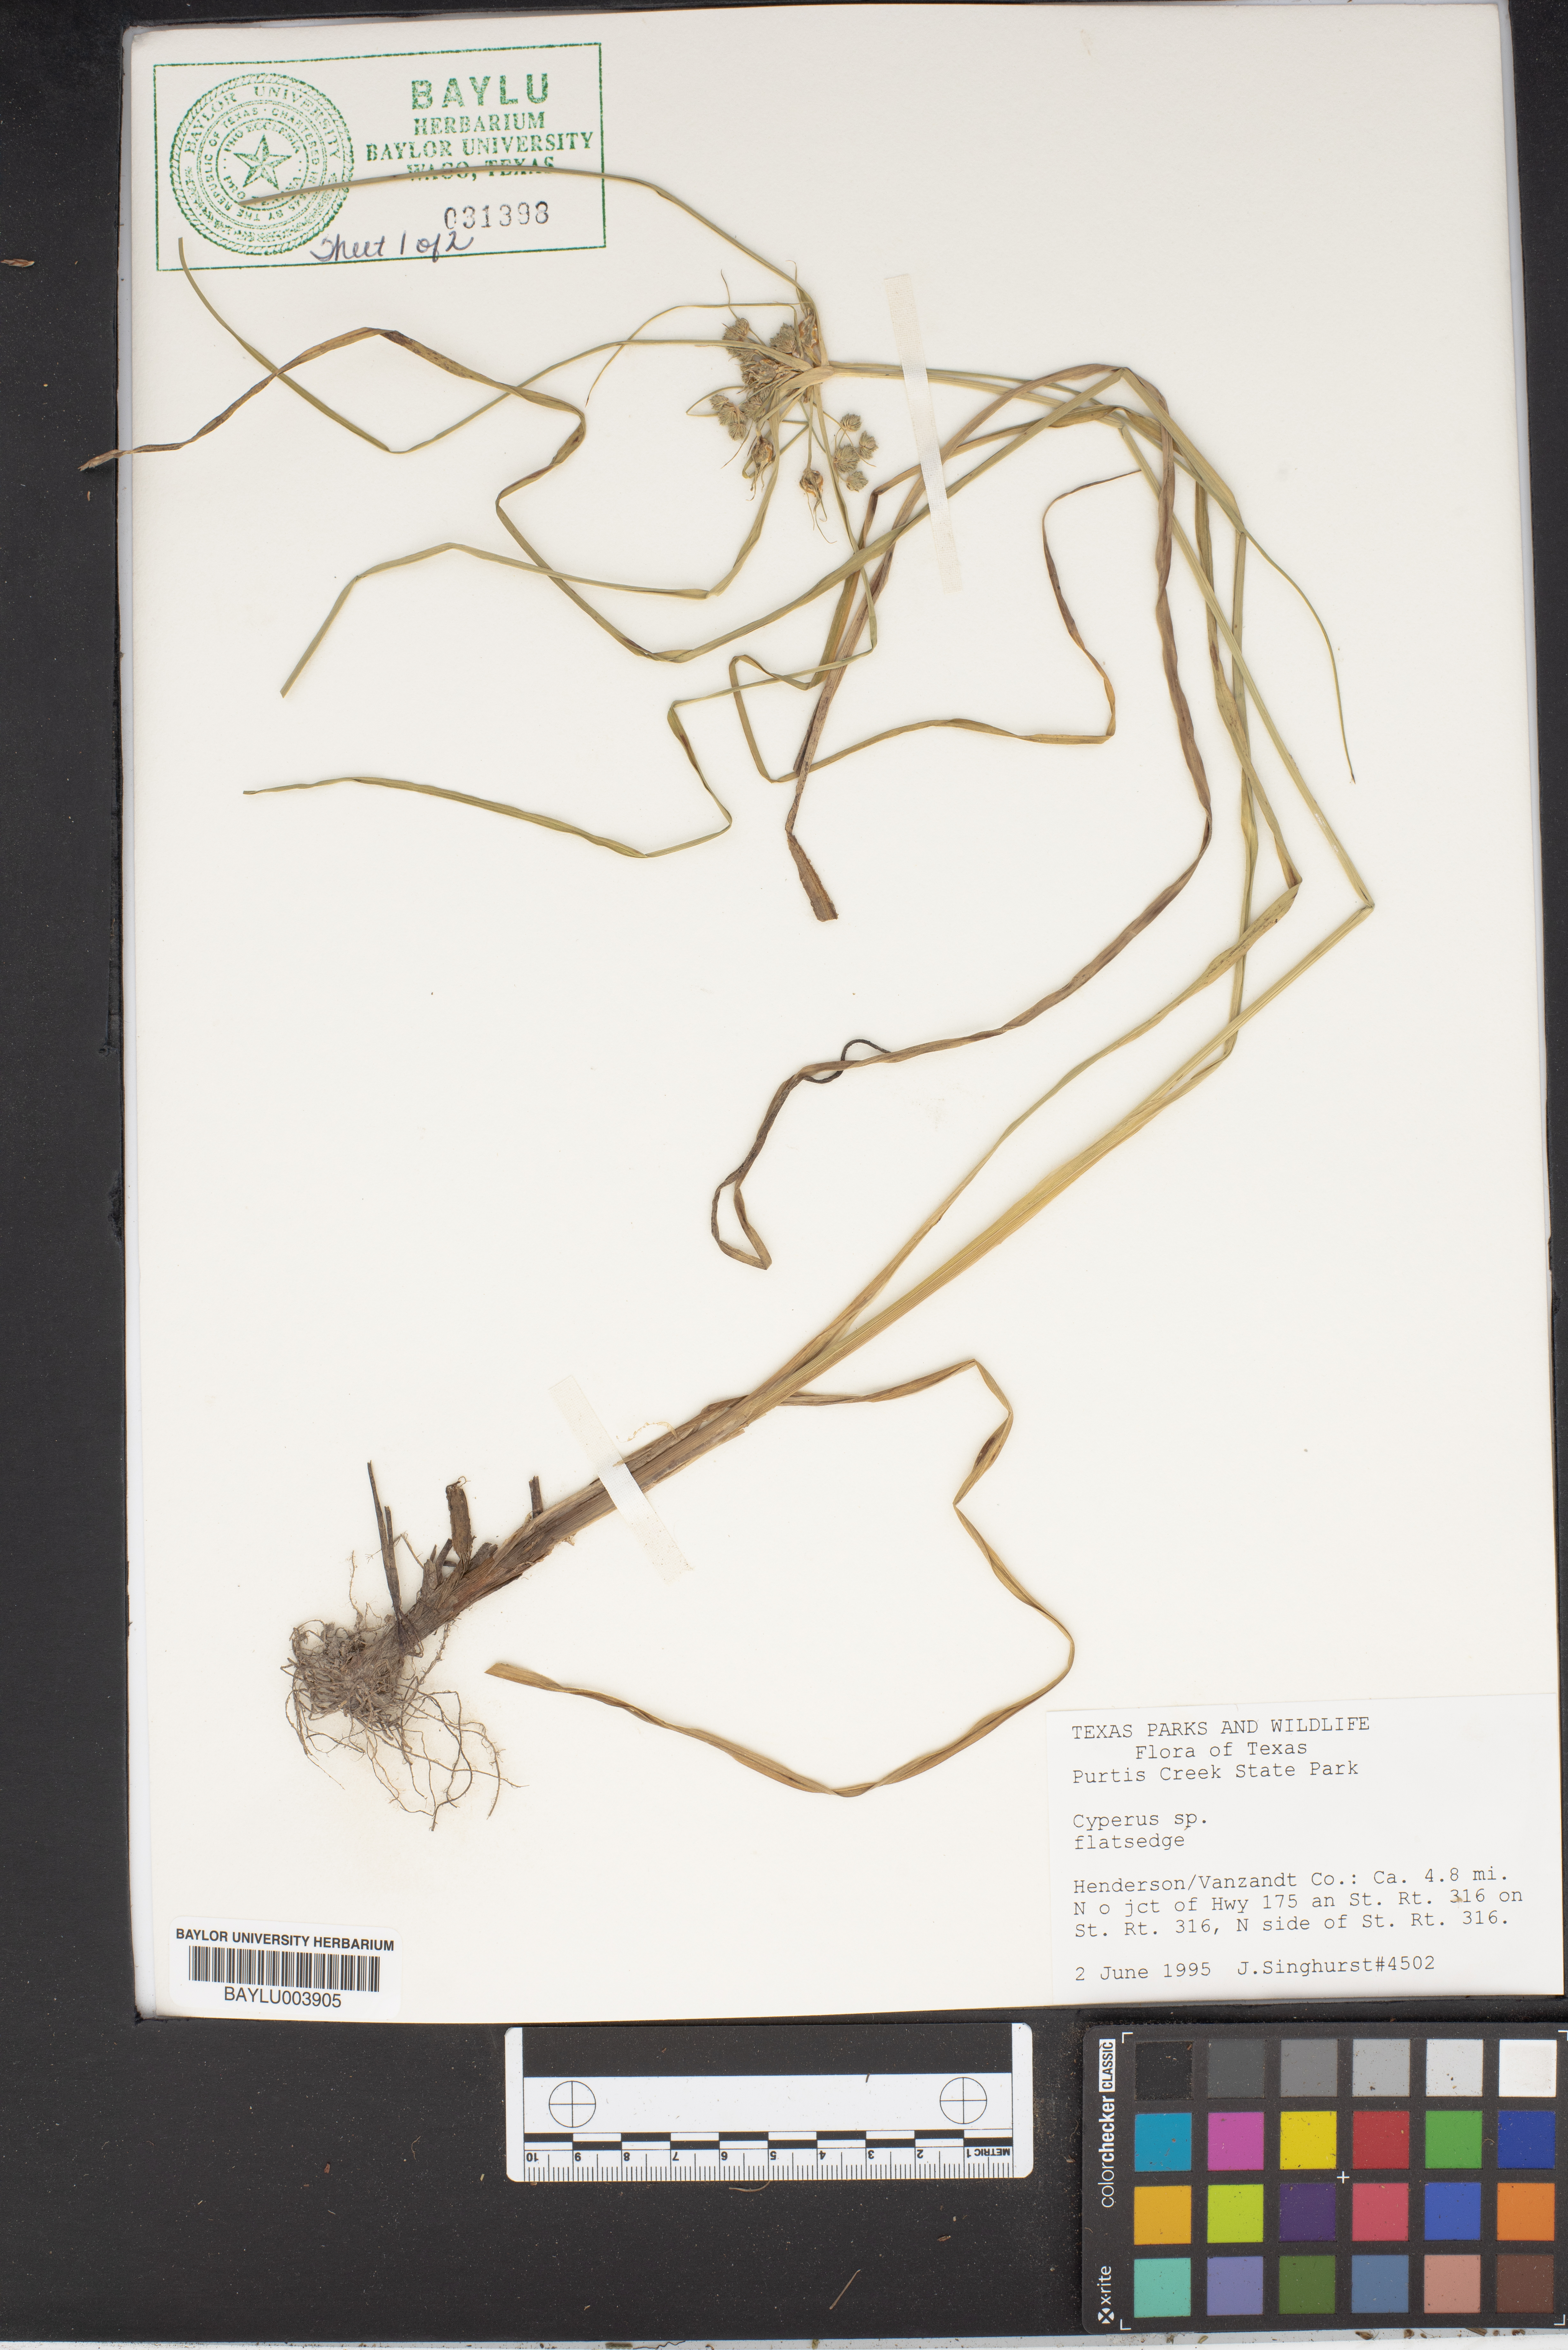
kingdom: Plantae
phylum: Tracheophyta
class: Liliopsida
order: Poales
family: Cyperaceae
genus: Cyperus
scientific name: Cyperus
